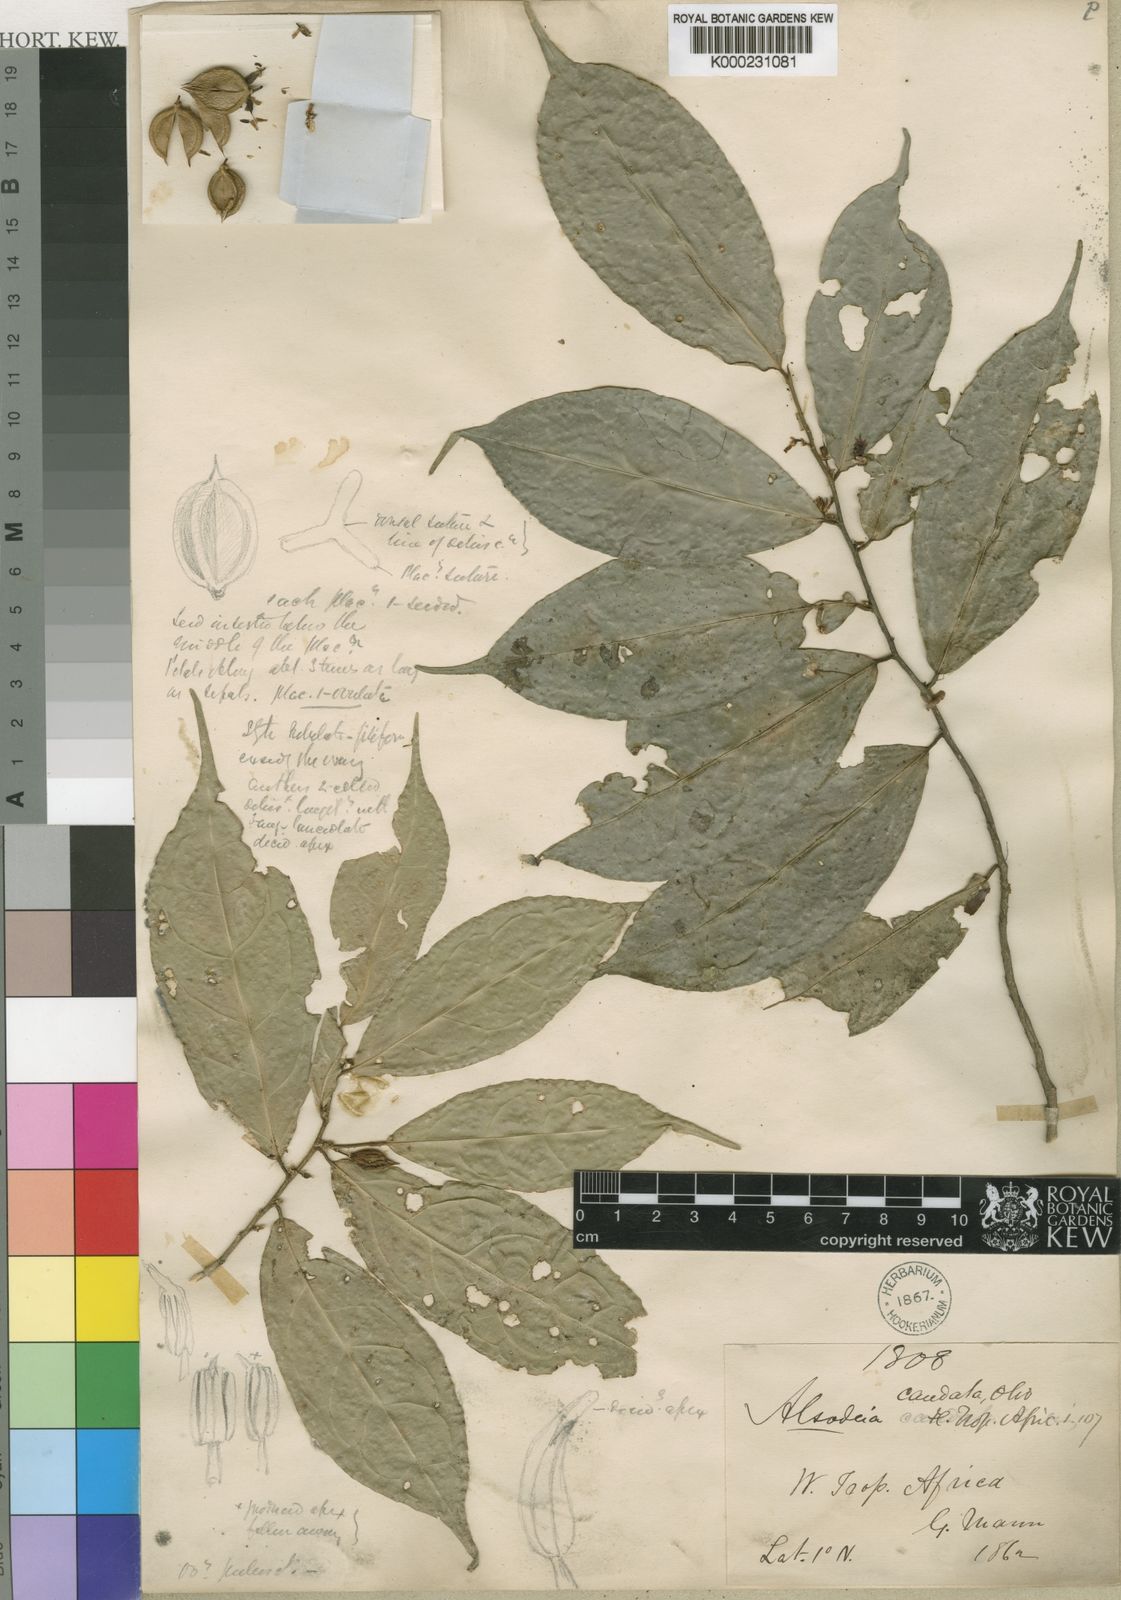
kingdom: Plantae
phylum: Tracheophyta
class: Magnoliopsida
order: Malpighiales
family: Violaceae
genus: Rinorea
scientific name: Rinorea caudata
